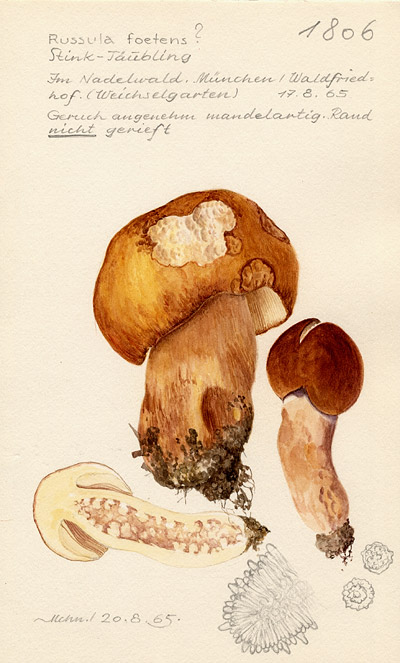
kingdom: Fungi
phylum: Basidiomycota
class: Agaricomycetes
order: Russulales
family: Russulaceae
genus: Russula
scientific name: Russula foetens
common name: Foetid russula
